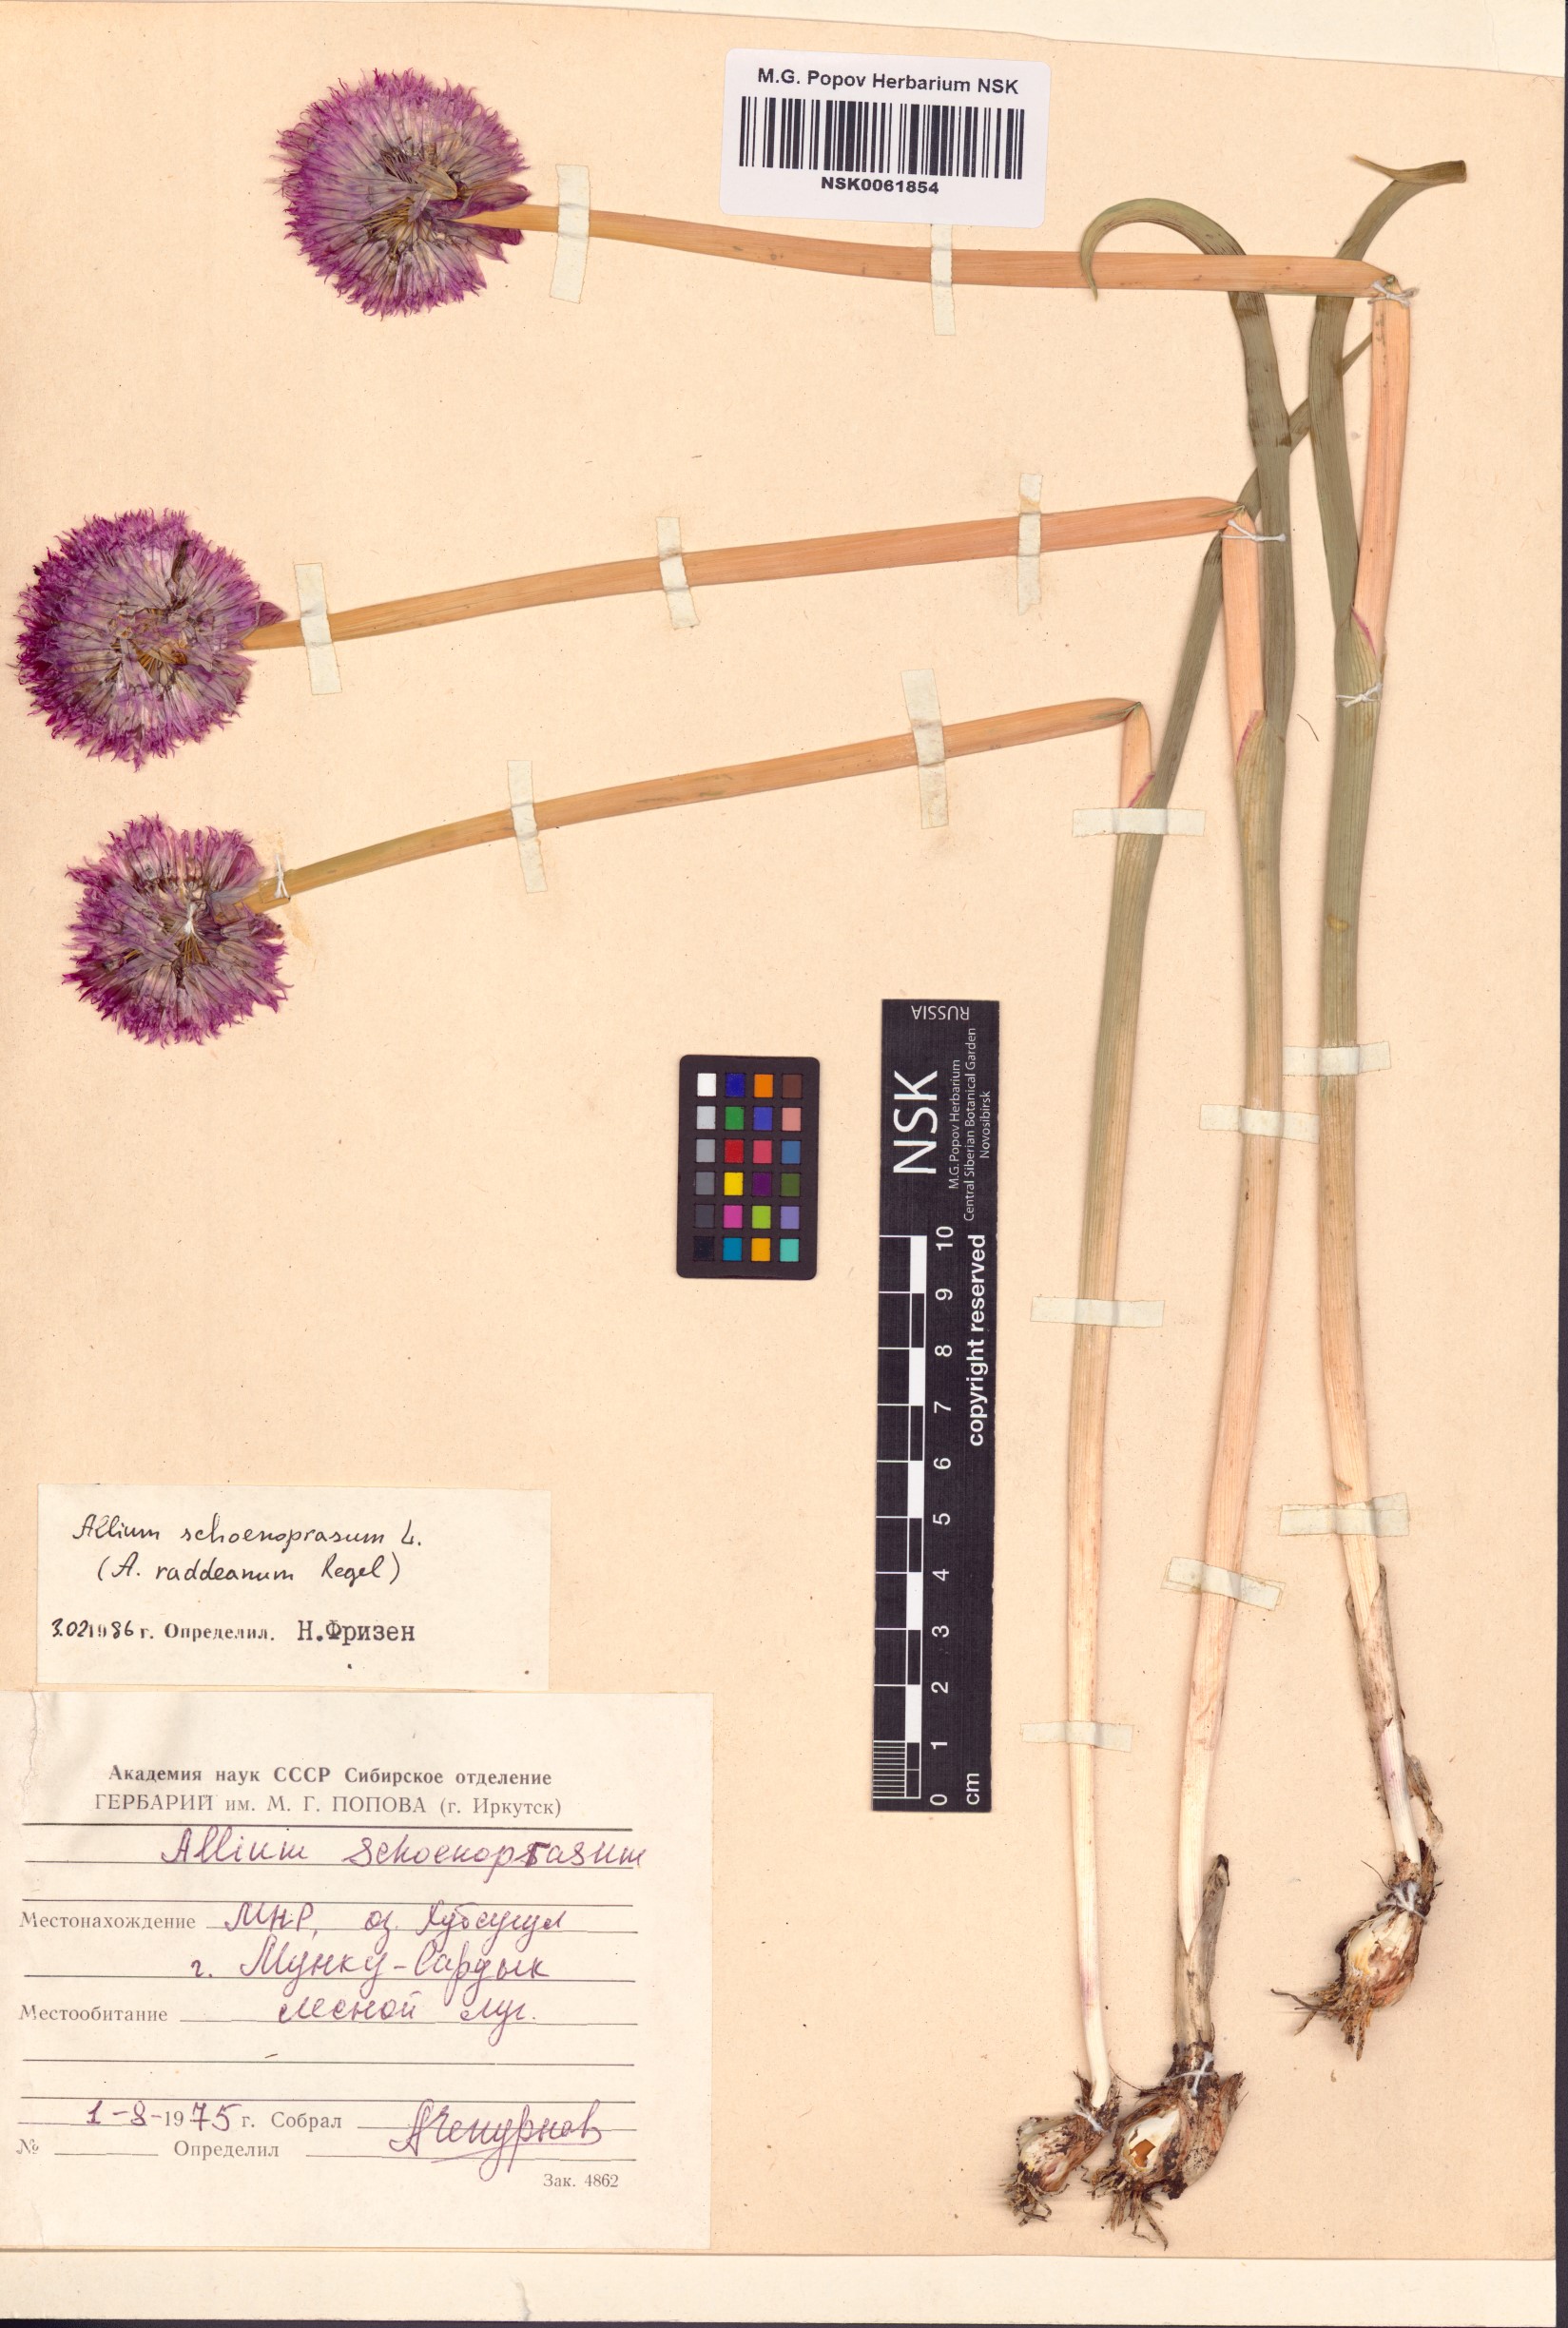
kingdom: Plantae
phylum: Tracheophyta
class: Liliopsida
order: Asparagales
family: Amaryllidaceae
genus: Allium
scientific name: Allium schoenoprasum
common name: Chives
